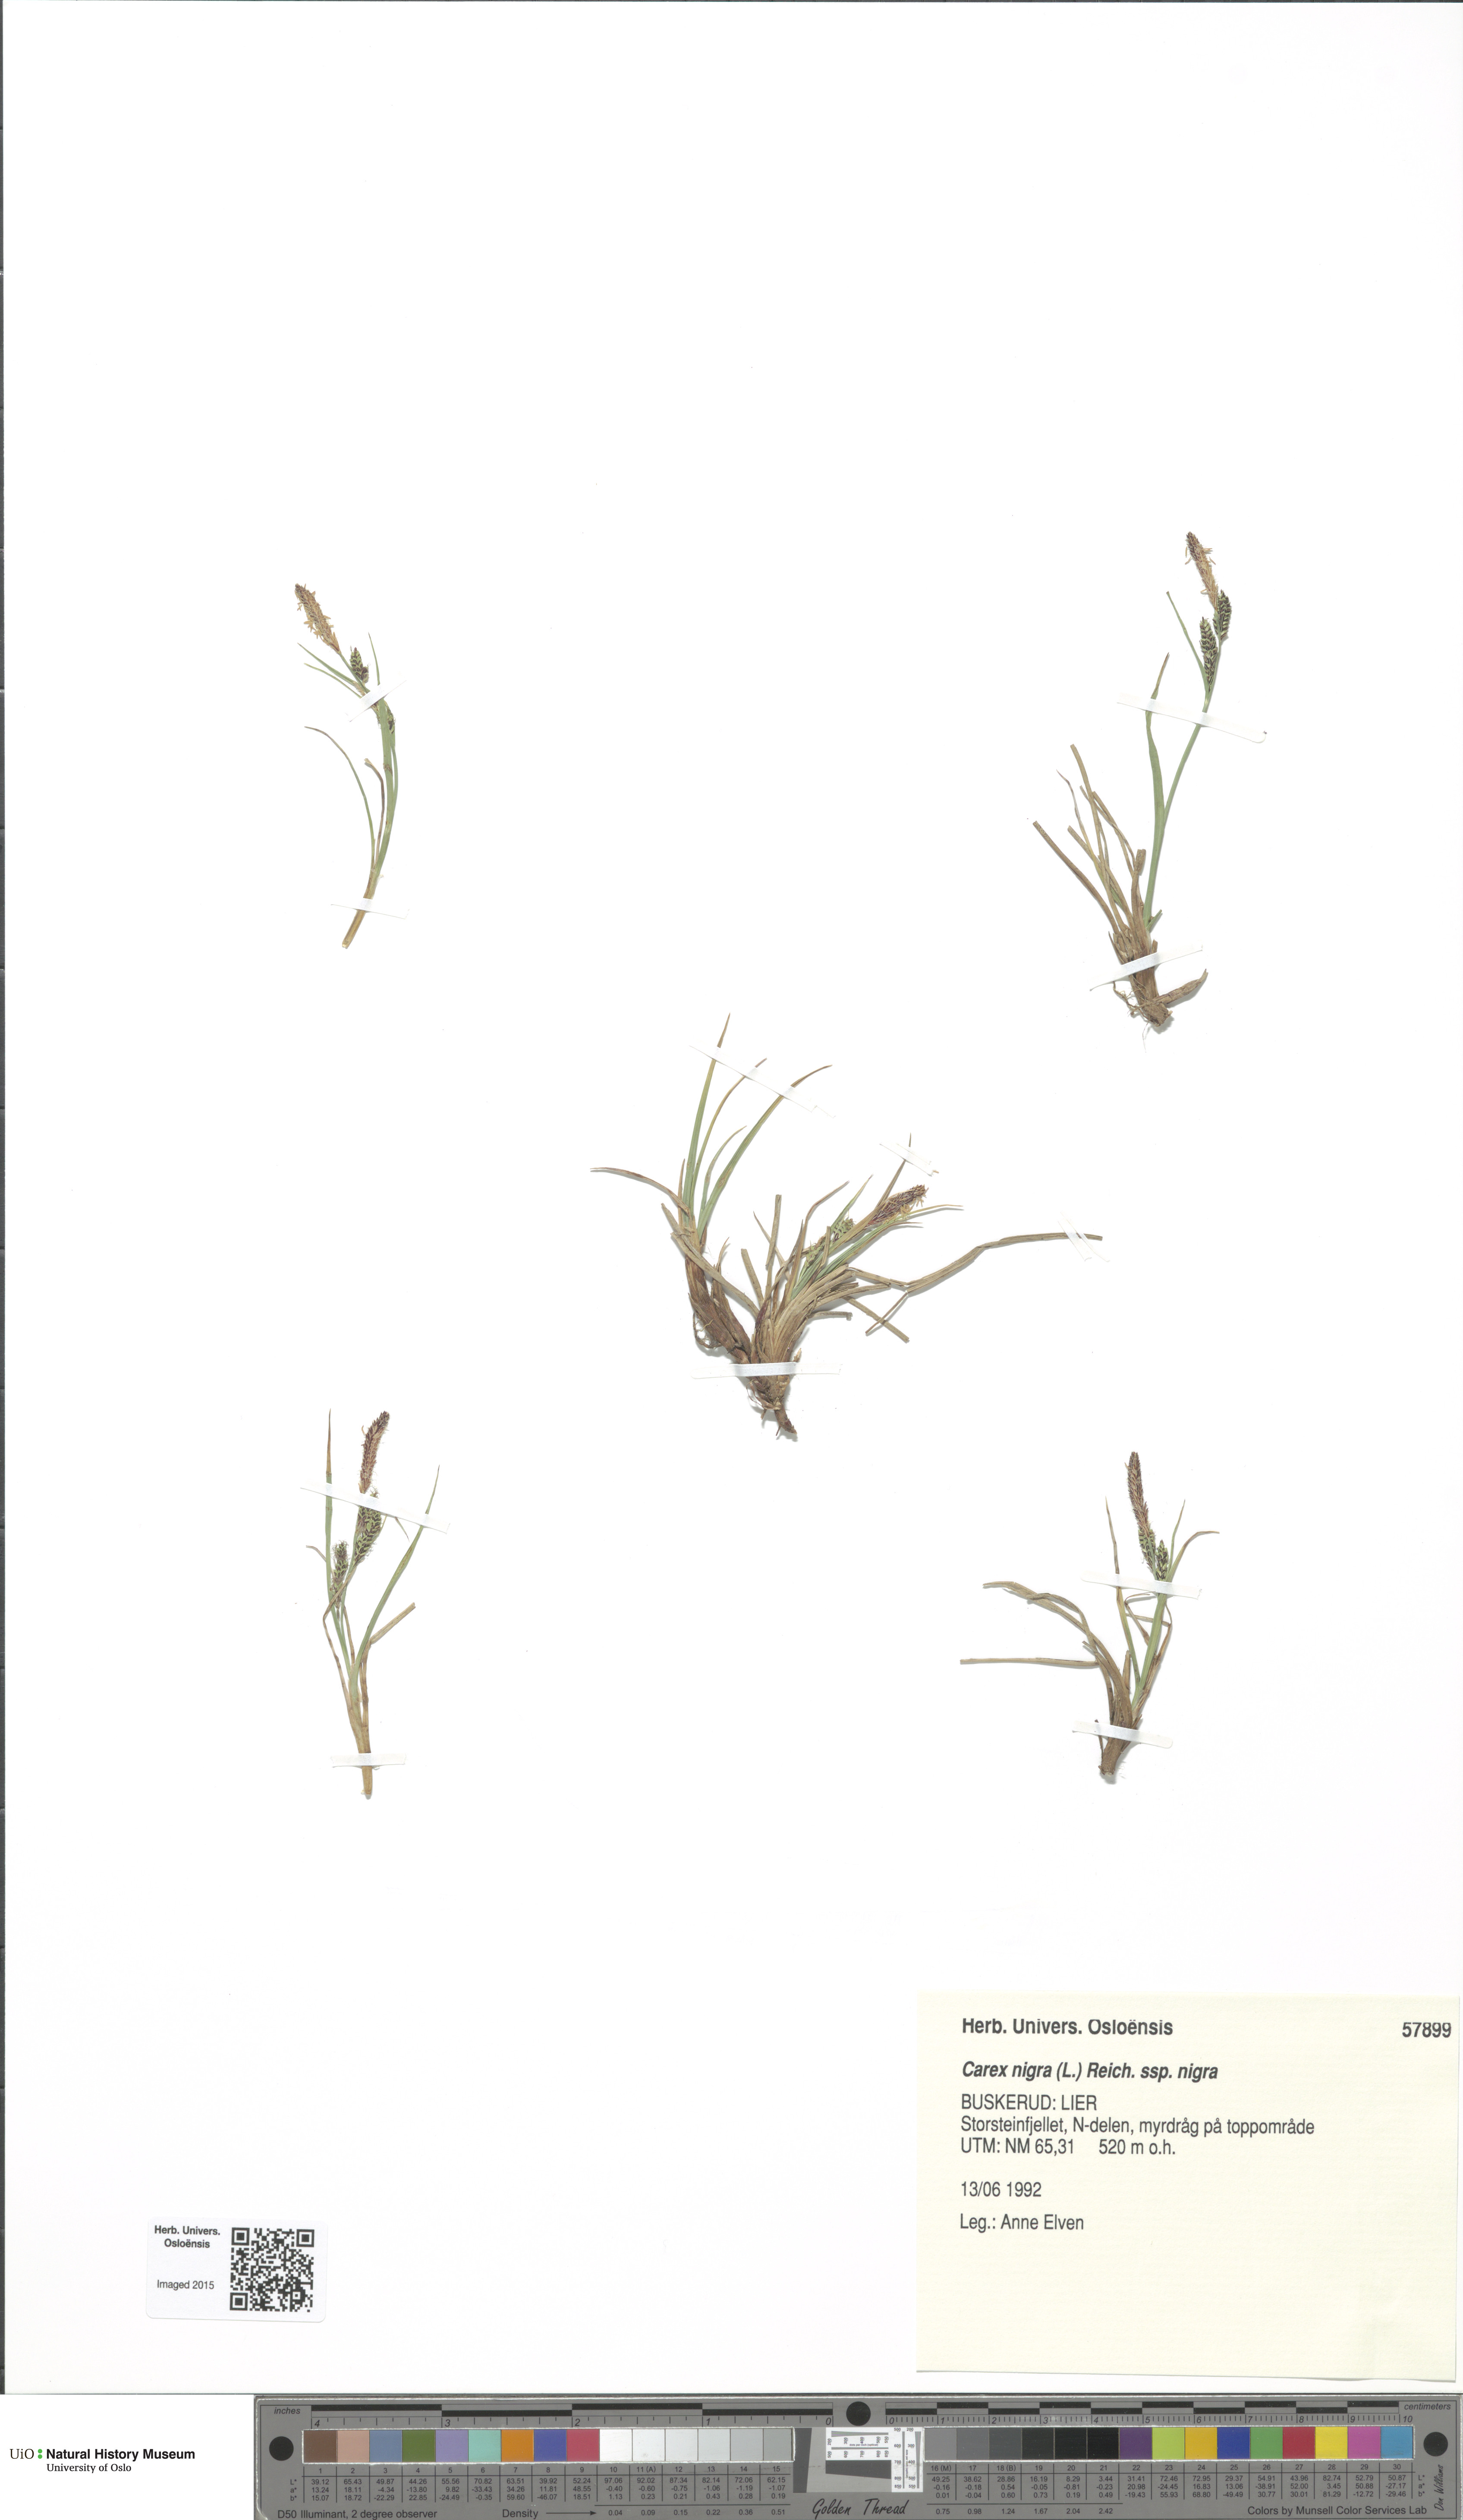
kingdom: Plantae
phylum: Tracheophyta
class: Liliopsida
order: Poales
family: Cyperaceae
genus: Carex
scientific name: Carex nigra
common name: Common sedge
